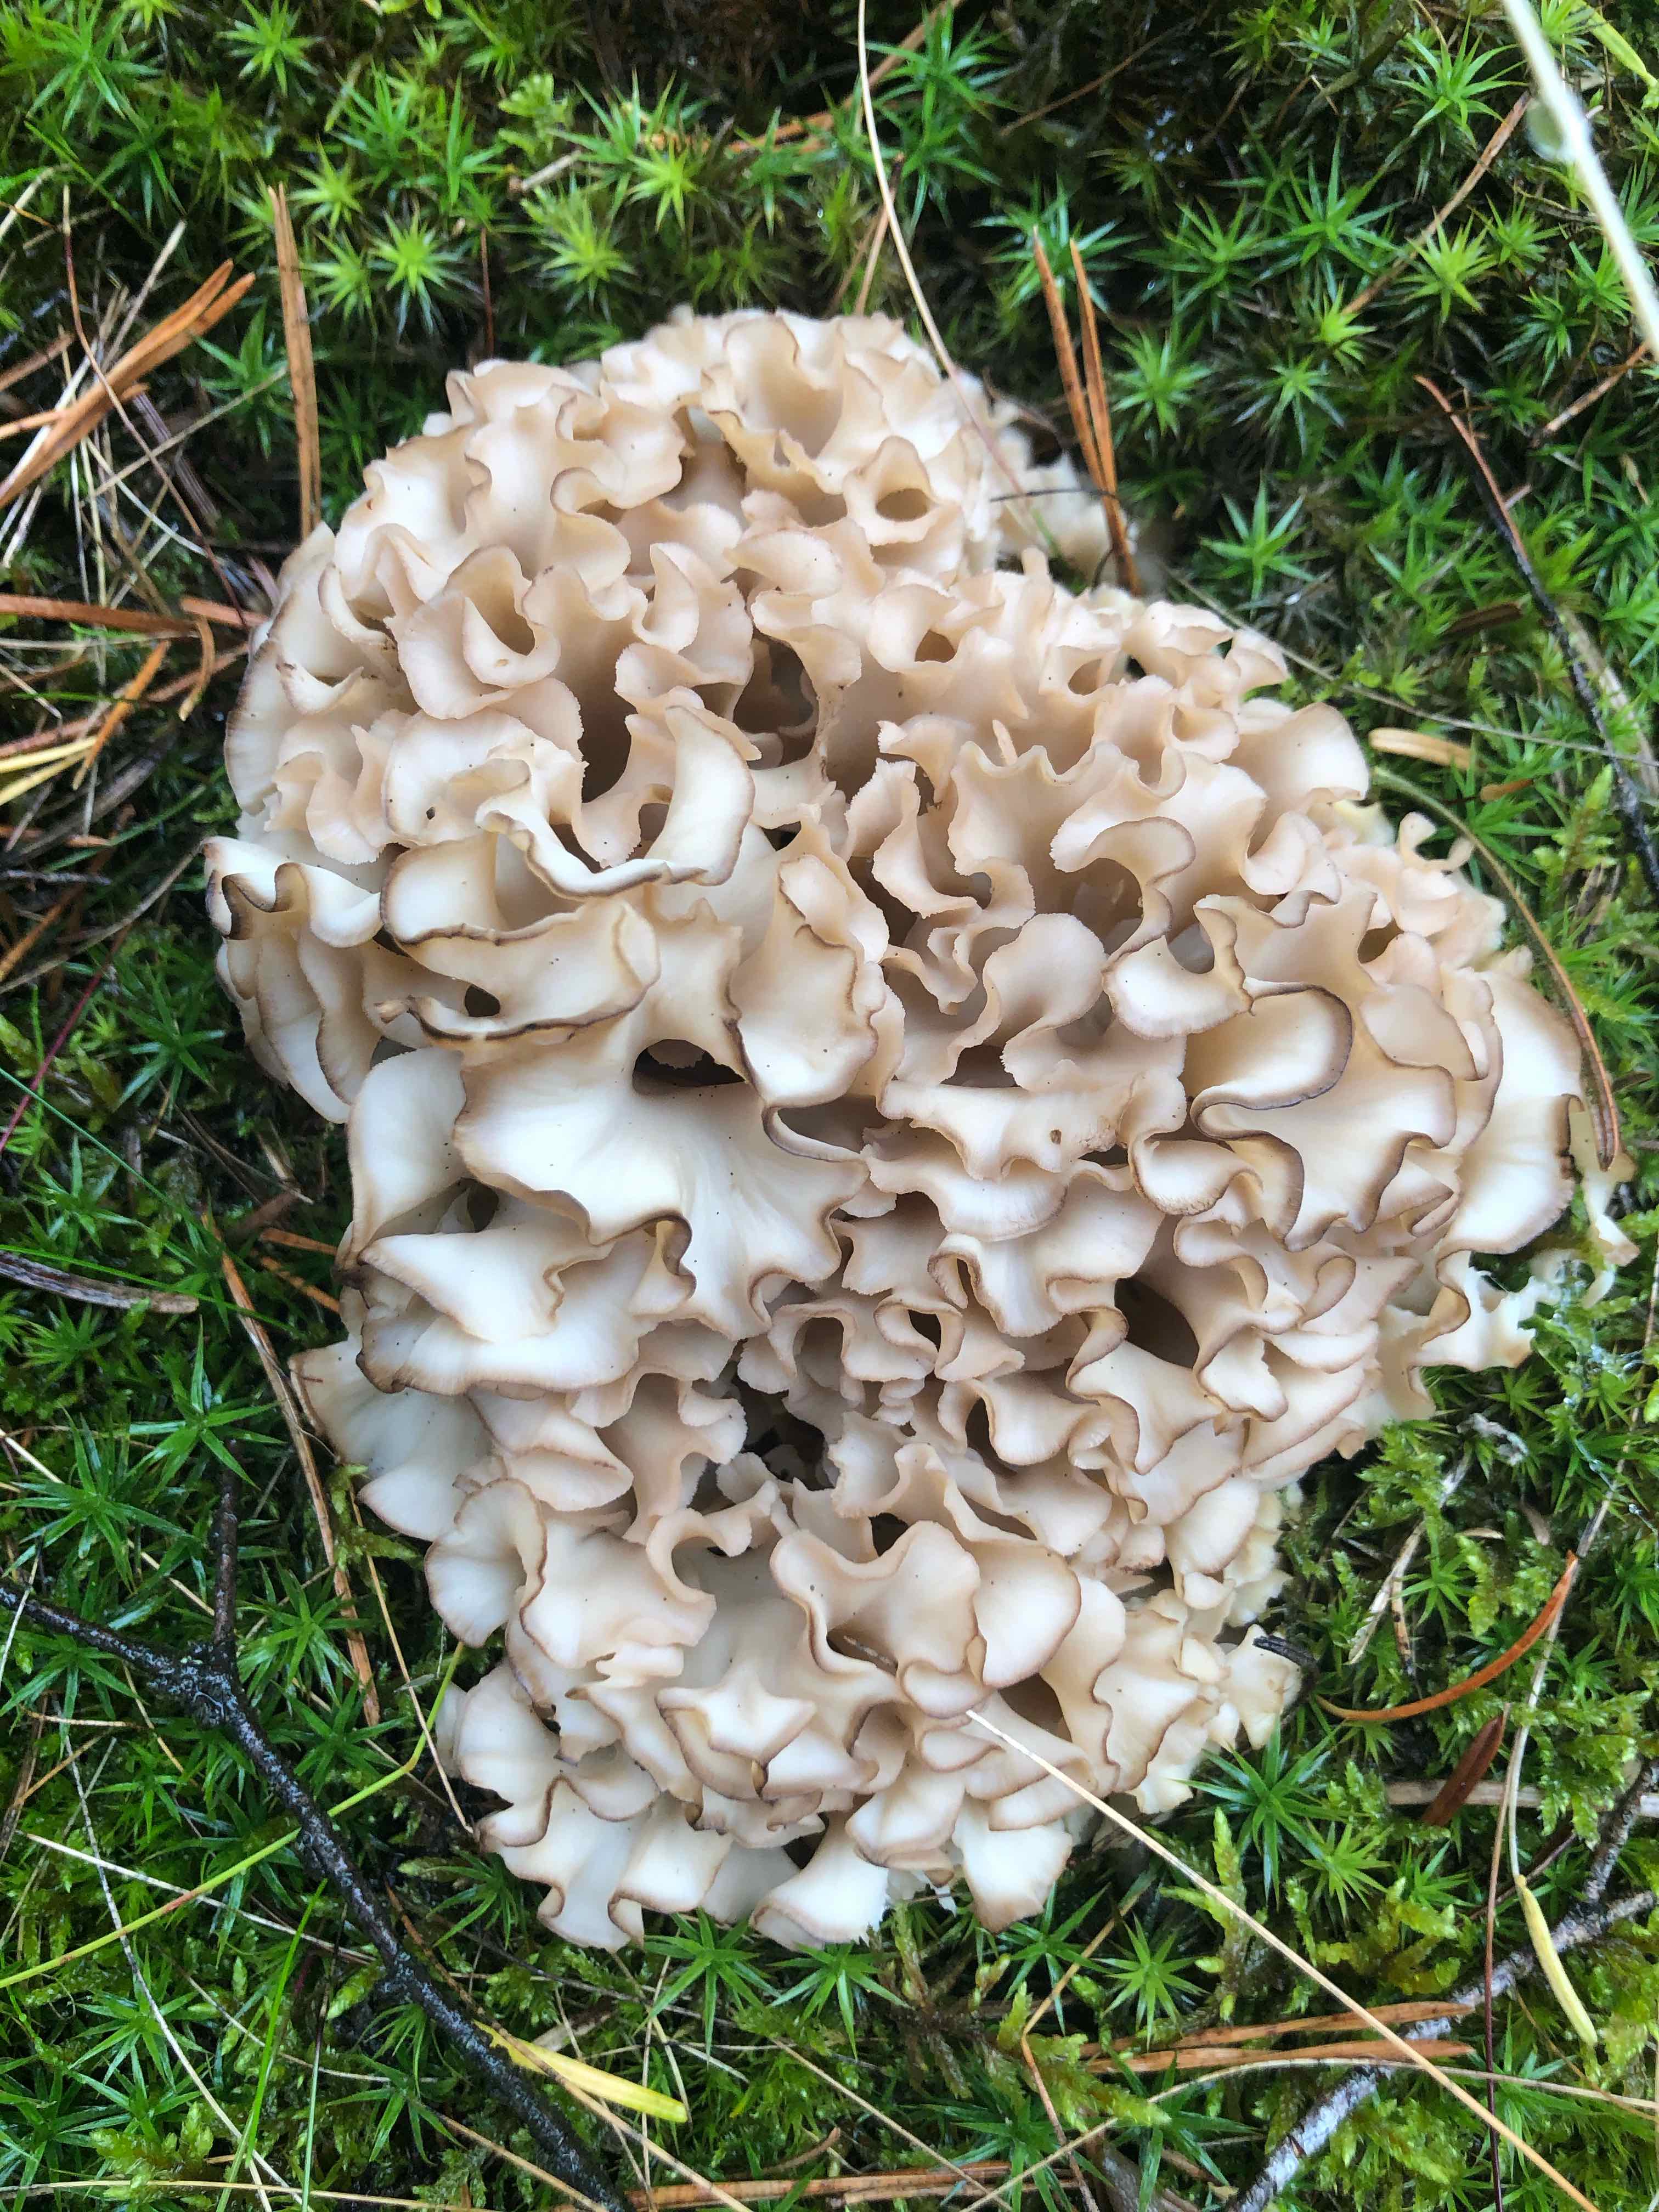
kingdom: Fungi
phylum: Basidiomycota
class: Agaricomycetes
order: Polyporales
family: Sparassidaceae
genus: Sparassis
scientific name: Sparassis crispa
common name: kruset blomkålssvamp
